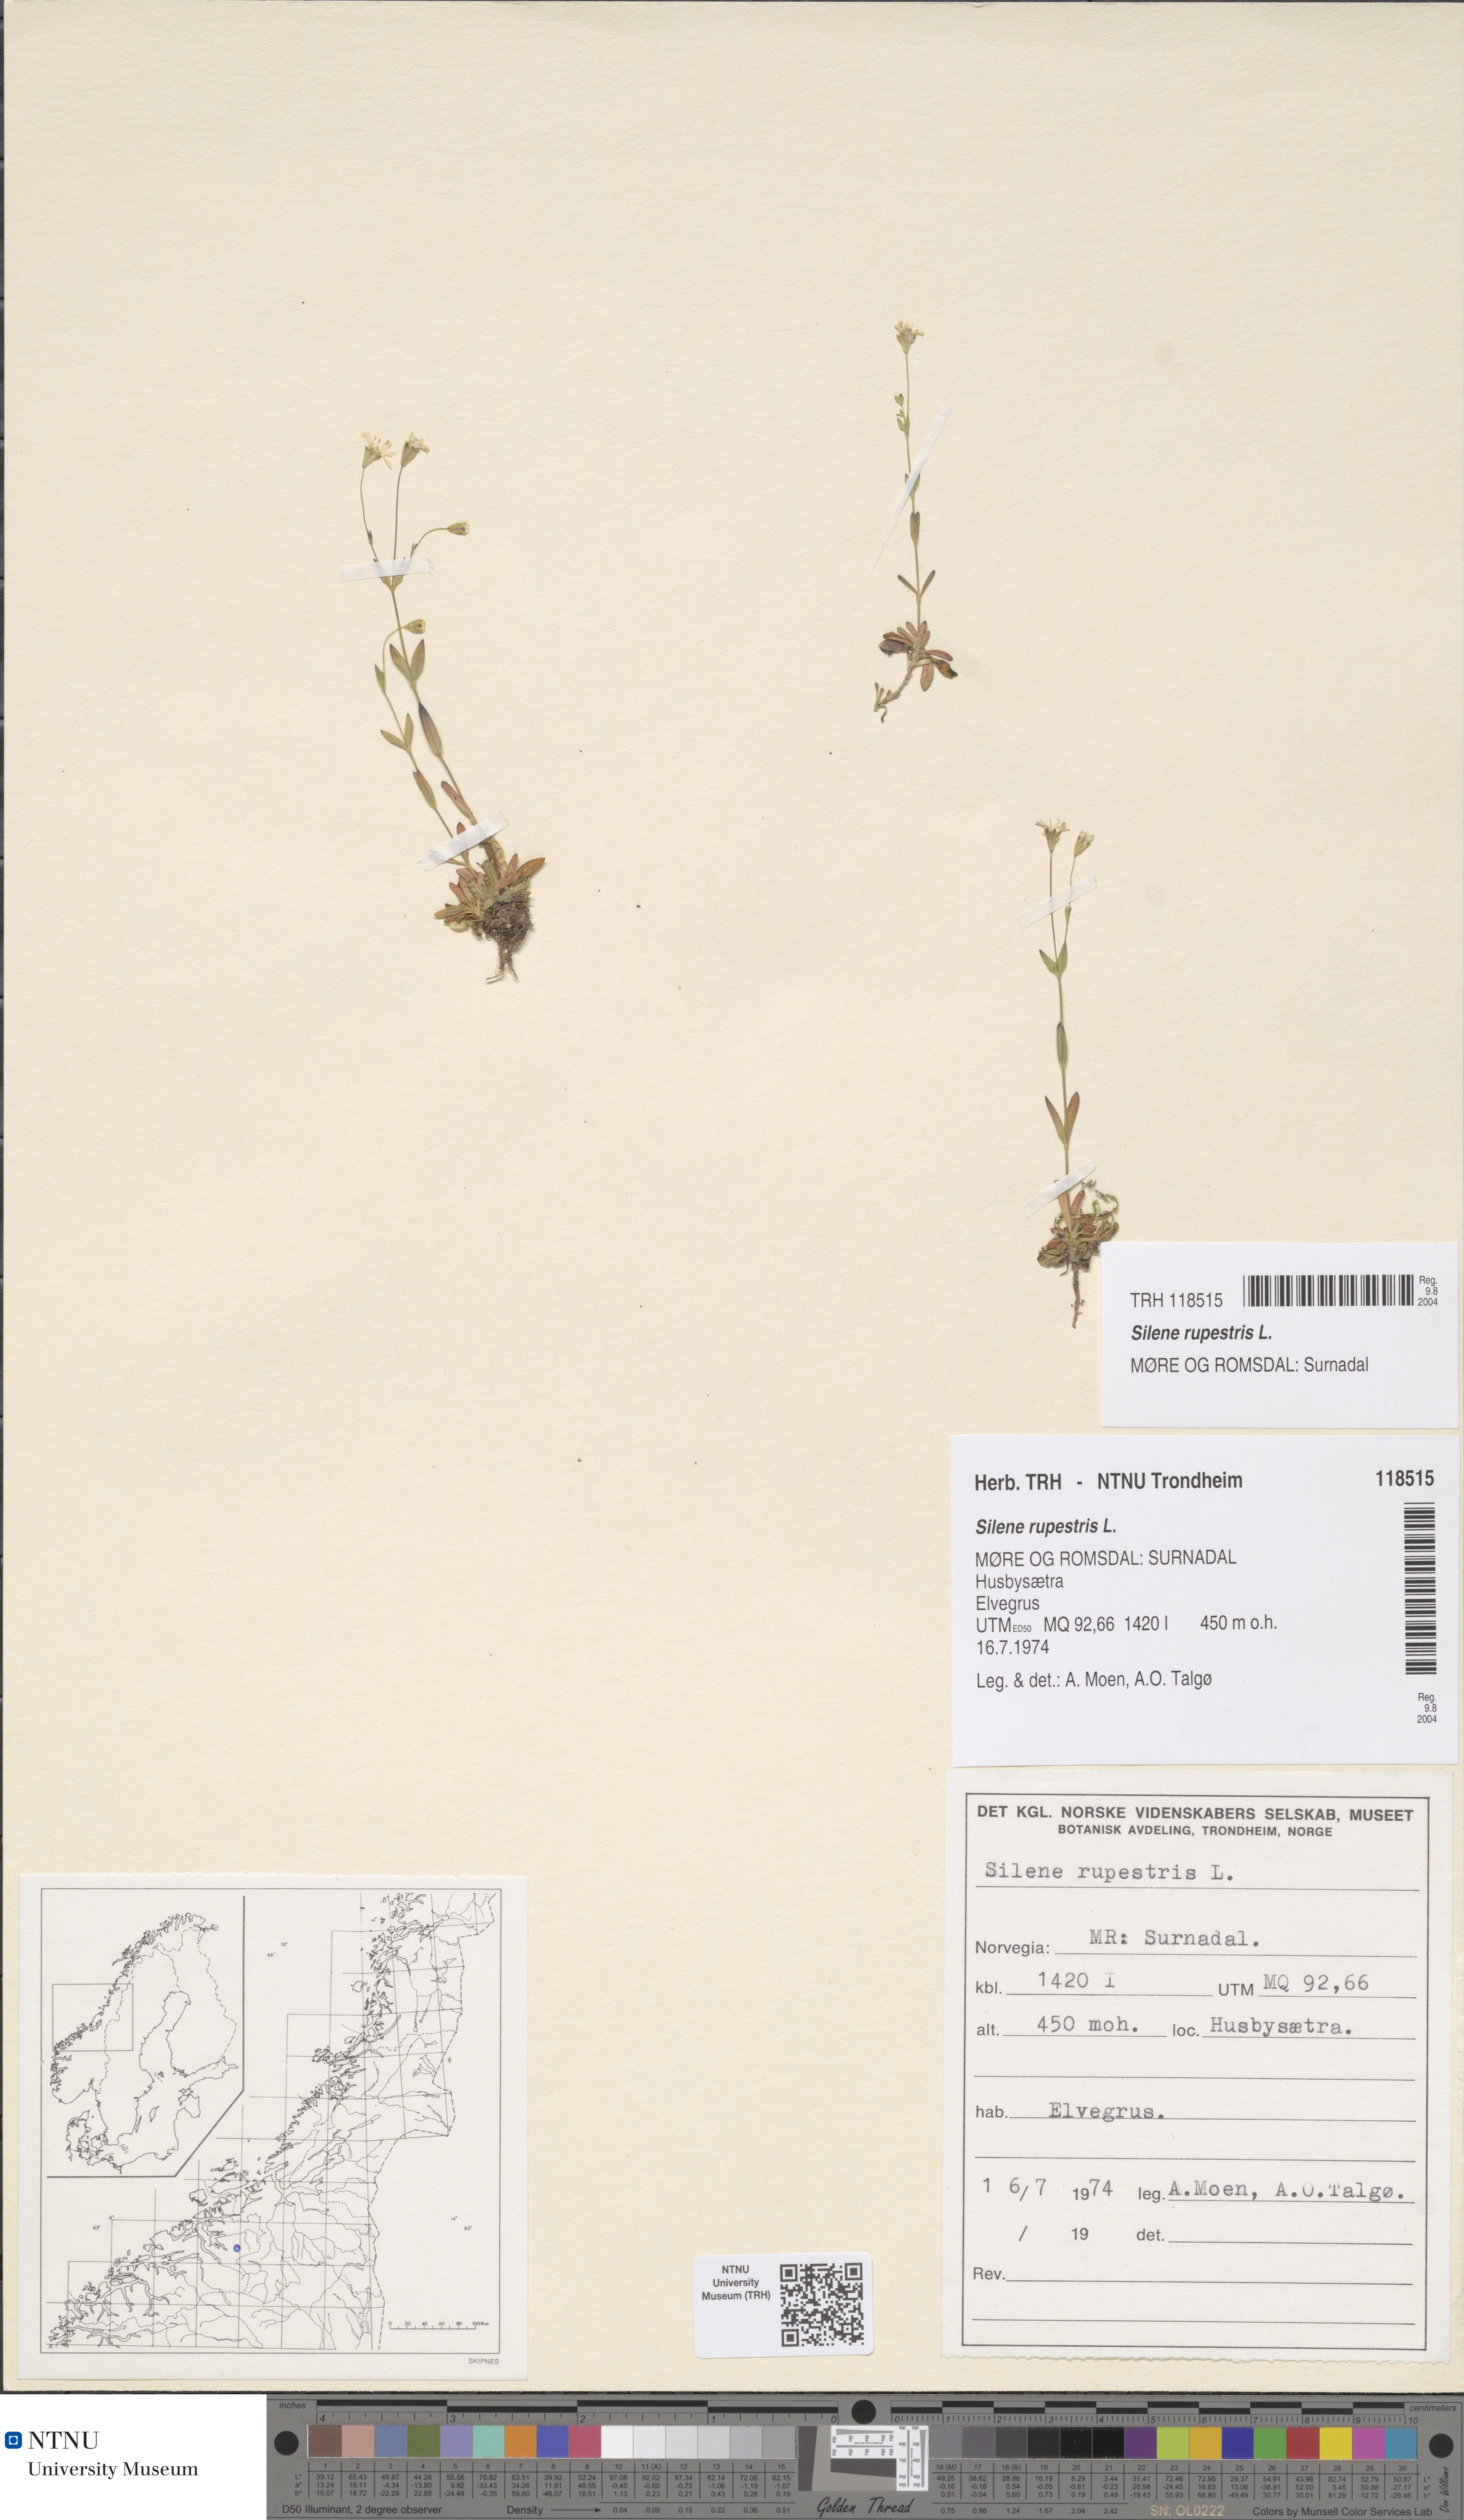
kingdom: Plantae
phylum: Tracheophyta
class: Magnoliopsida
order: Caryophyllales
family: Caryophyllaceae
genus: Atocion
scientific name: Atocion rupestre
